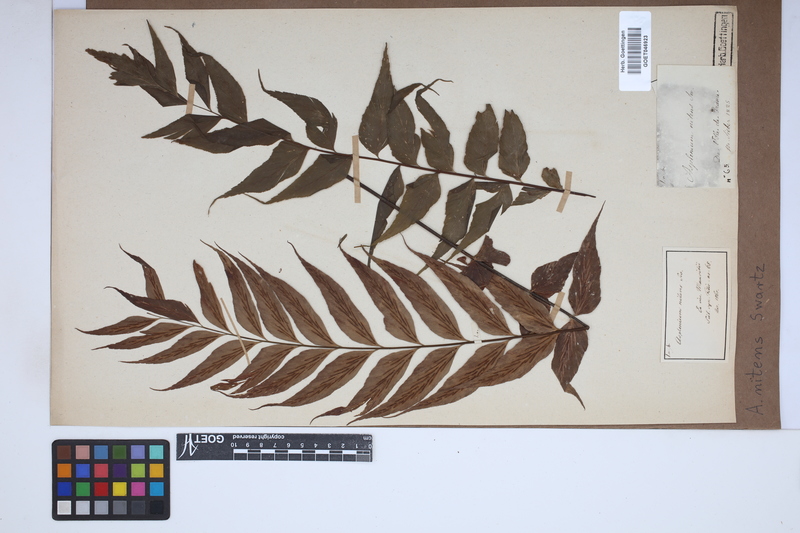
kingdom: Plantae
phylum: Tracheophyta
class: Polypodiopsida
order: Polypodiales
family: Aspleniaceae
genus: Asplenium
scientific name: Asplenium nitens
